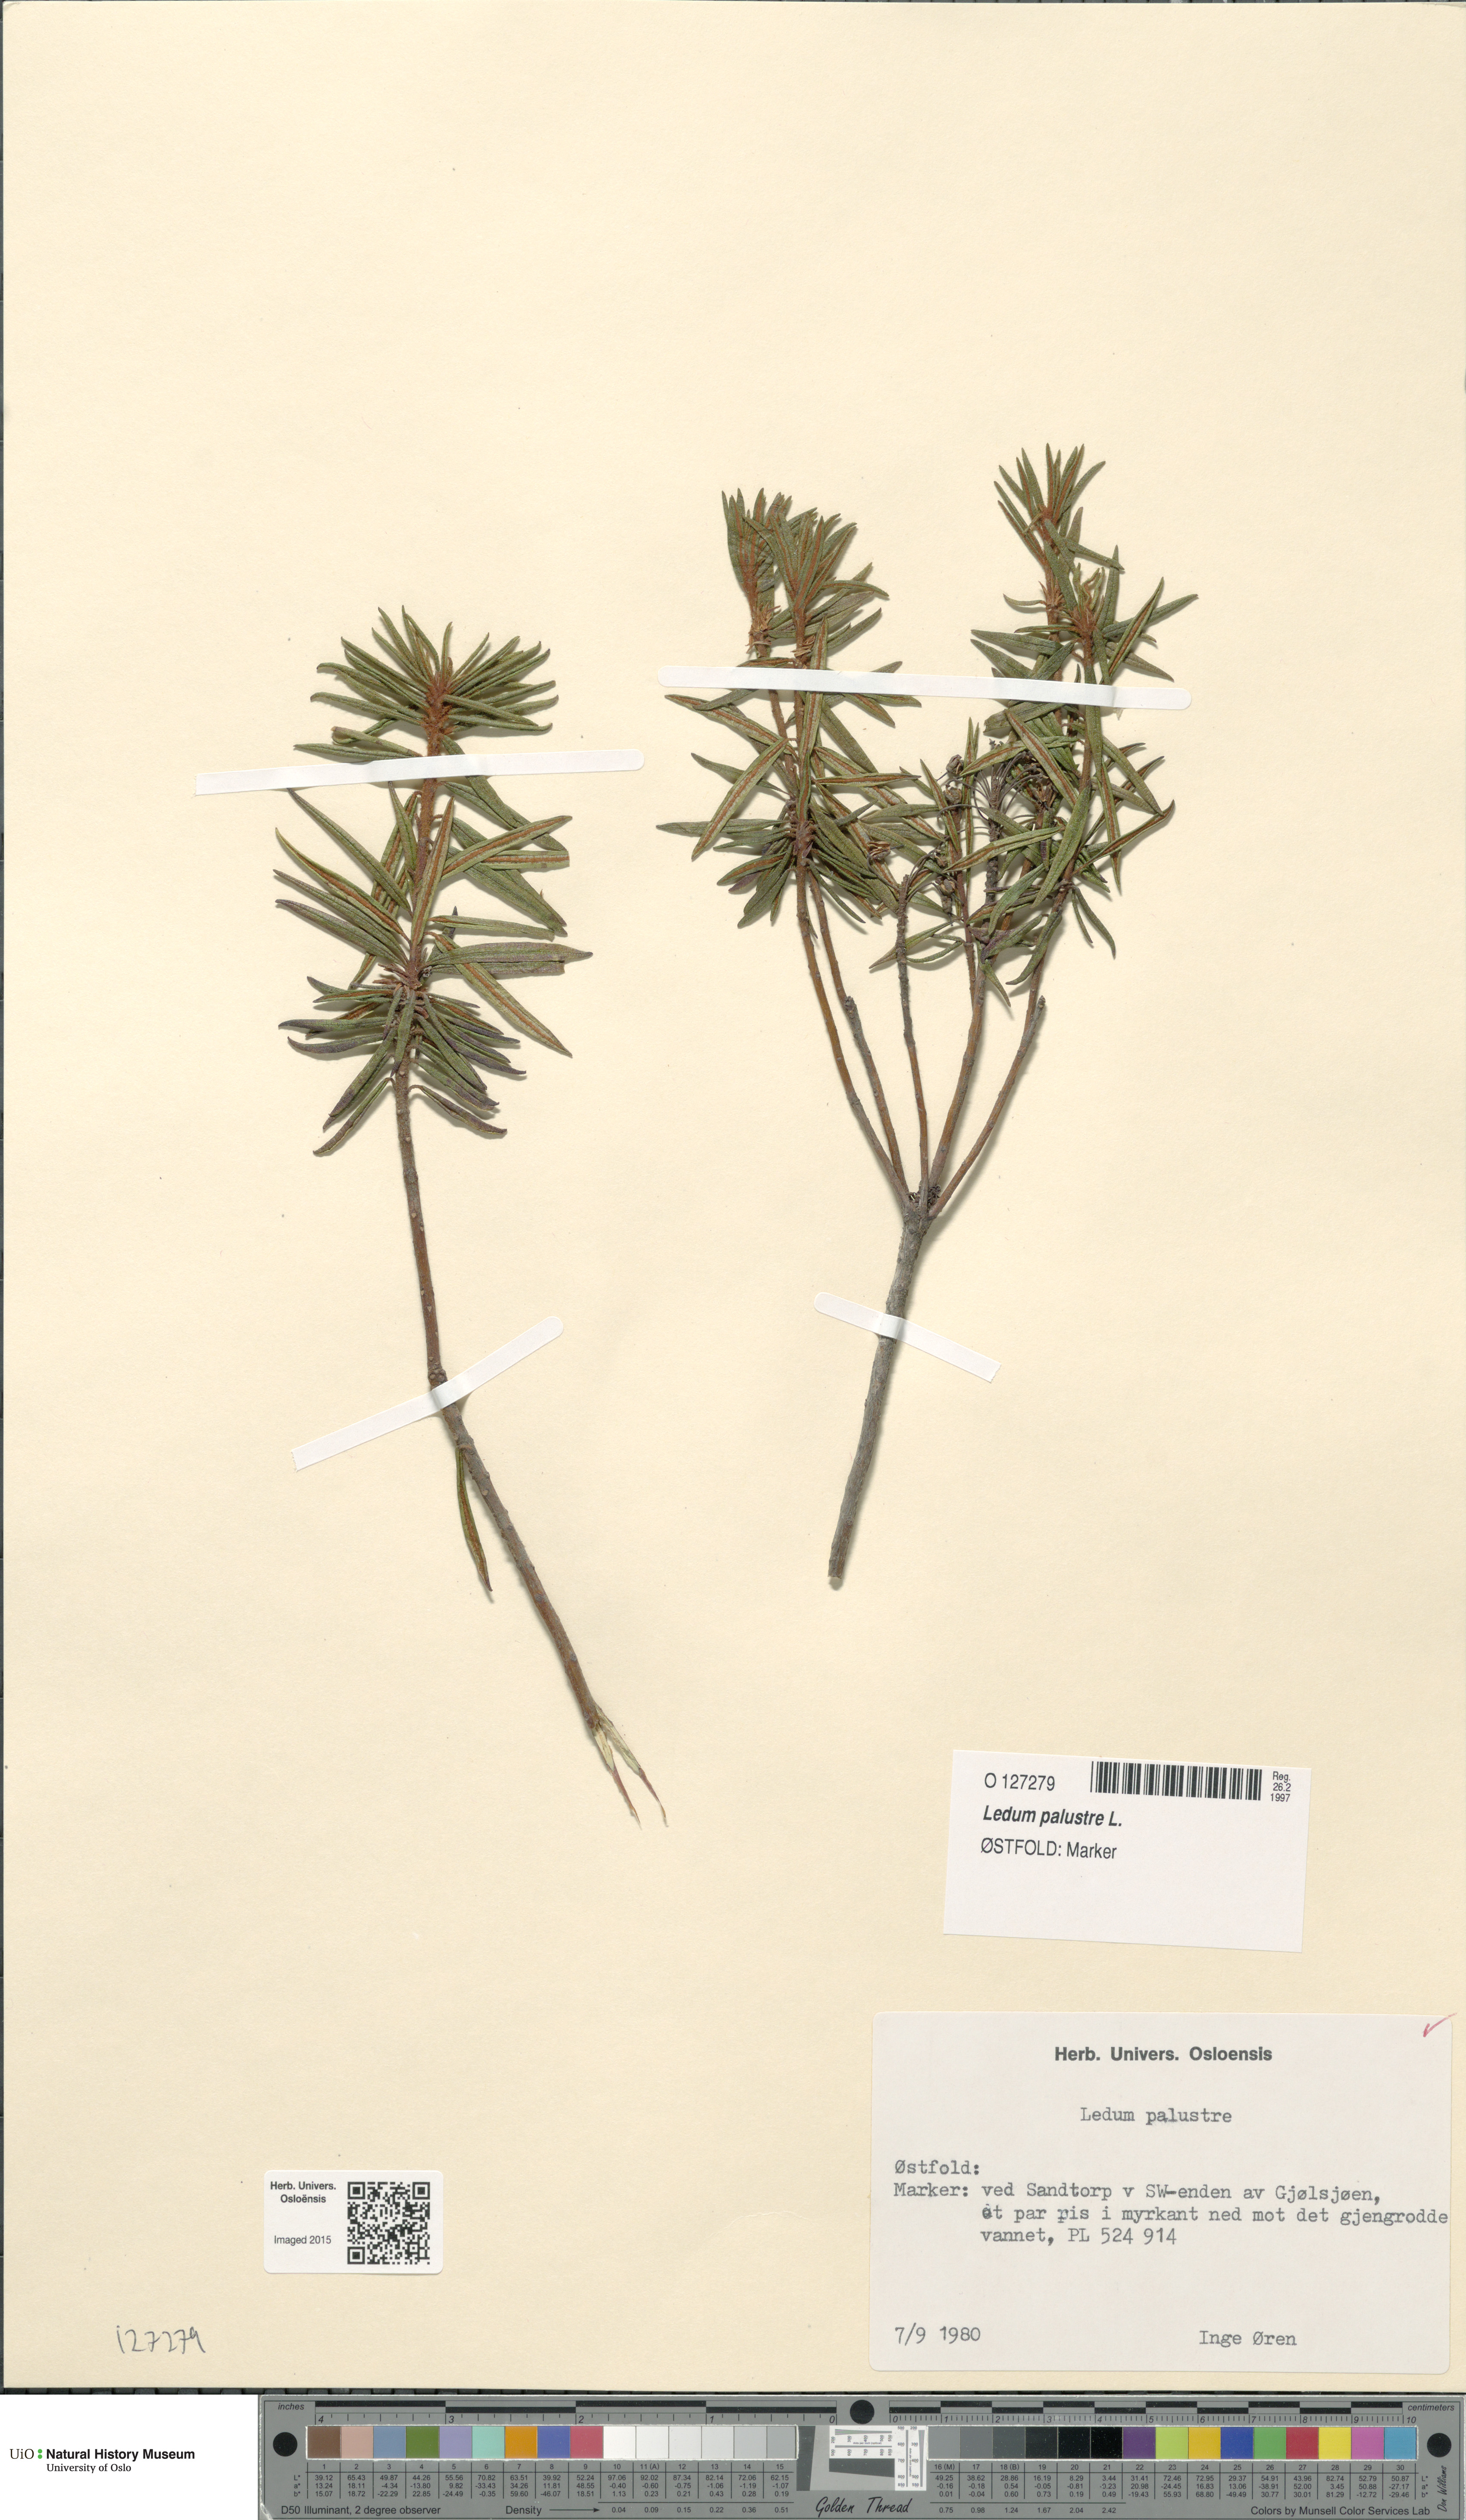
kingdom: Plantae
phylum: Tracheophyta
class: Magnoliopsida
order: Ericales
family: Ericaceae
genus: Rhododendron
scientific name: Rhododendron tomentosum
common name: Marsh labrador tea
